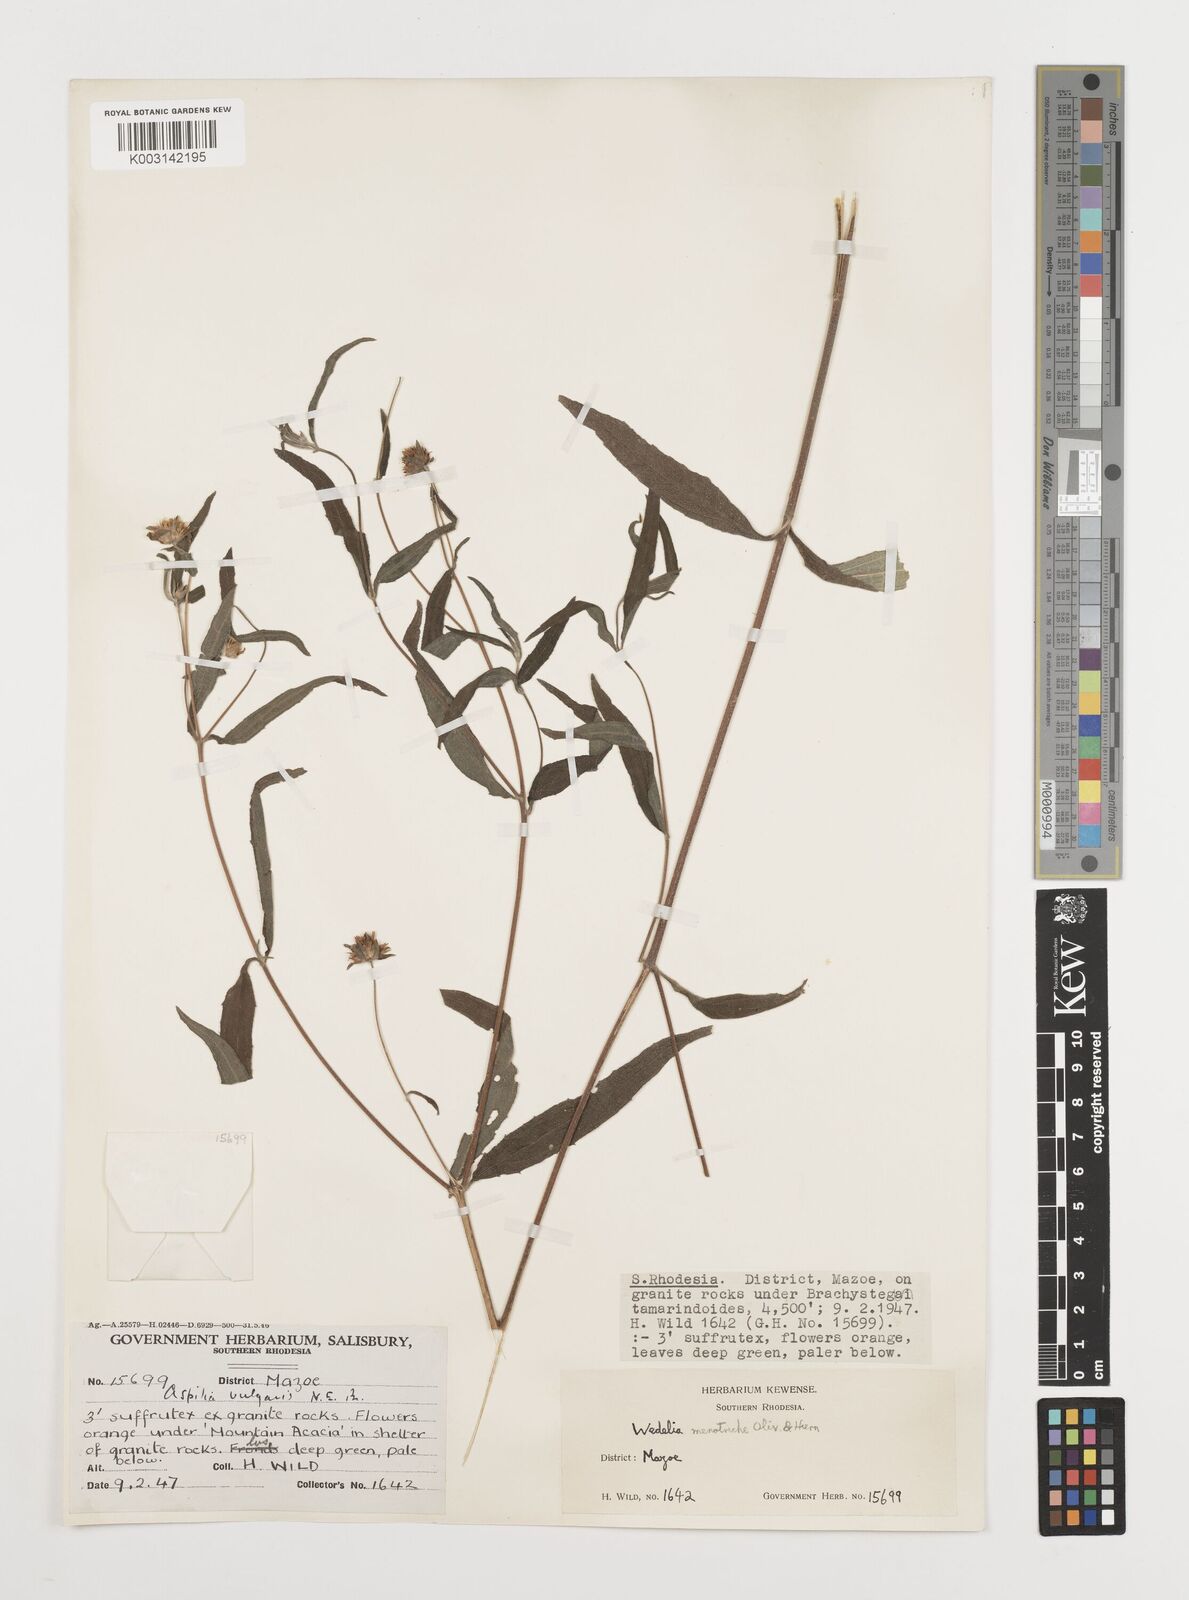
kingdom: Plantae
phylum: Tracheophyta
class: Magnoliopsida
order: Asterales
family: Asteraceae
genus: Aspilia
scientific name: Aspilia mossambicensis
